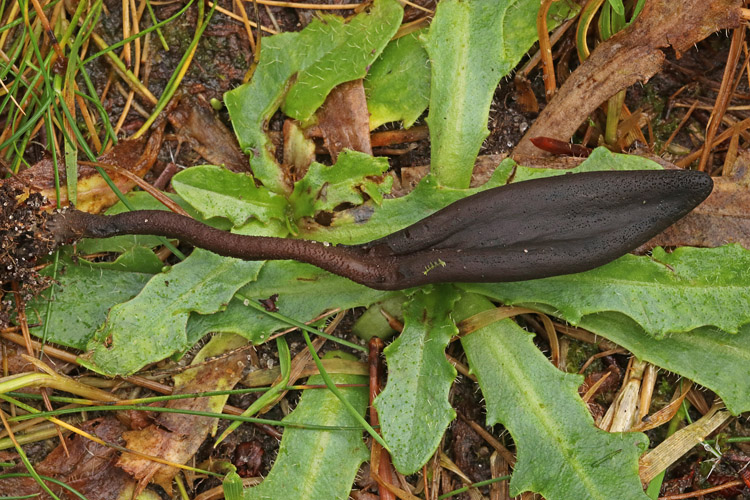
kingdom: Fungi
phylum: Ascomycota
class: Geoglossomycetes
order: Geoglossales
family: Geoglossaceae
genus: Hemileucoglossum
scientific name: Hemileucoglossum elongatum
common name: småsporet jordtunge
